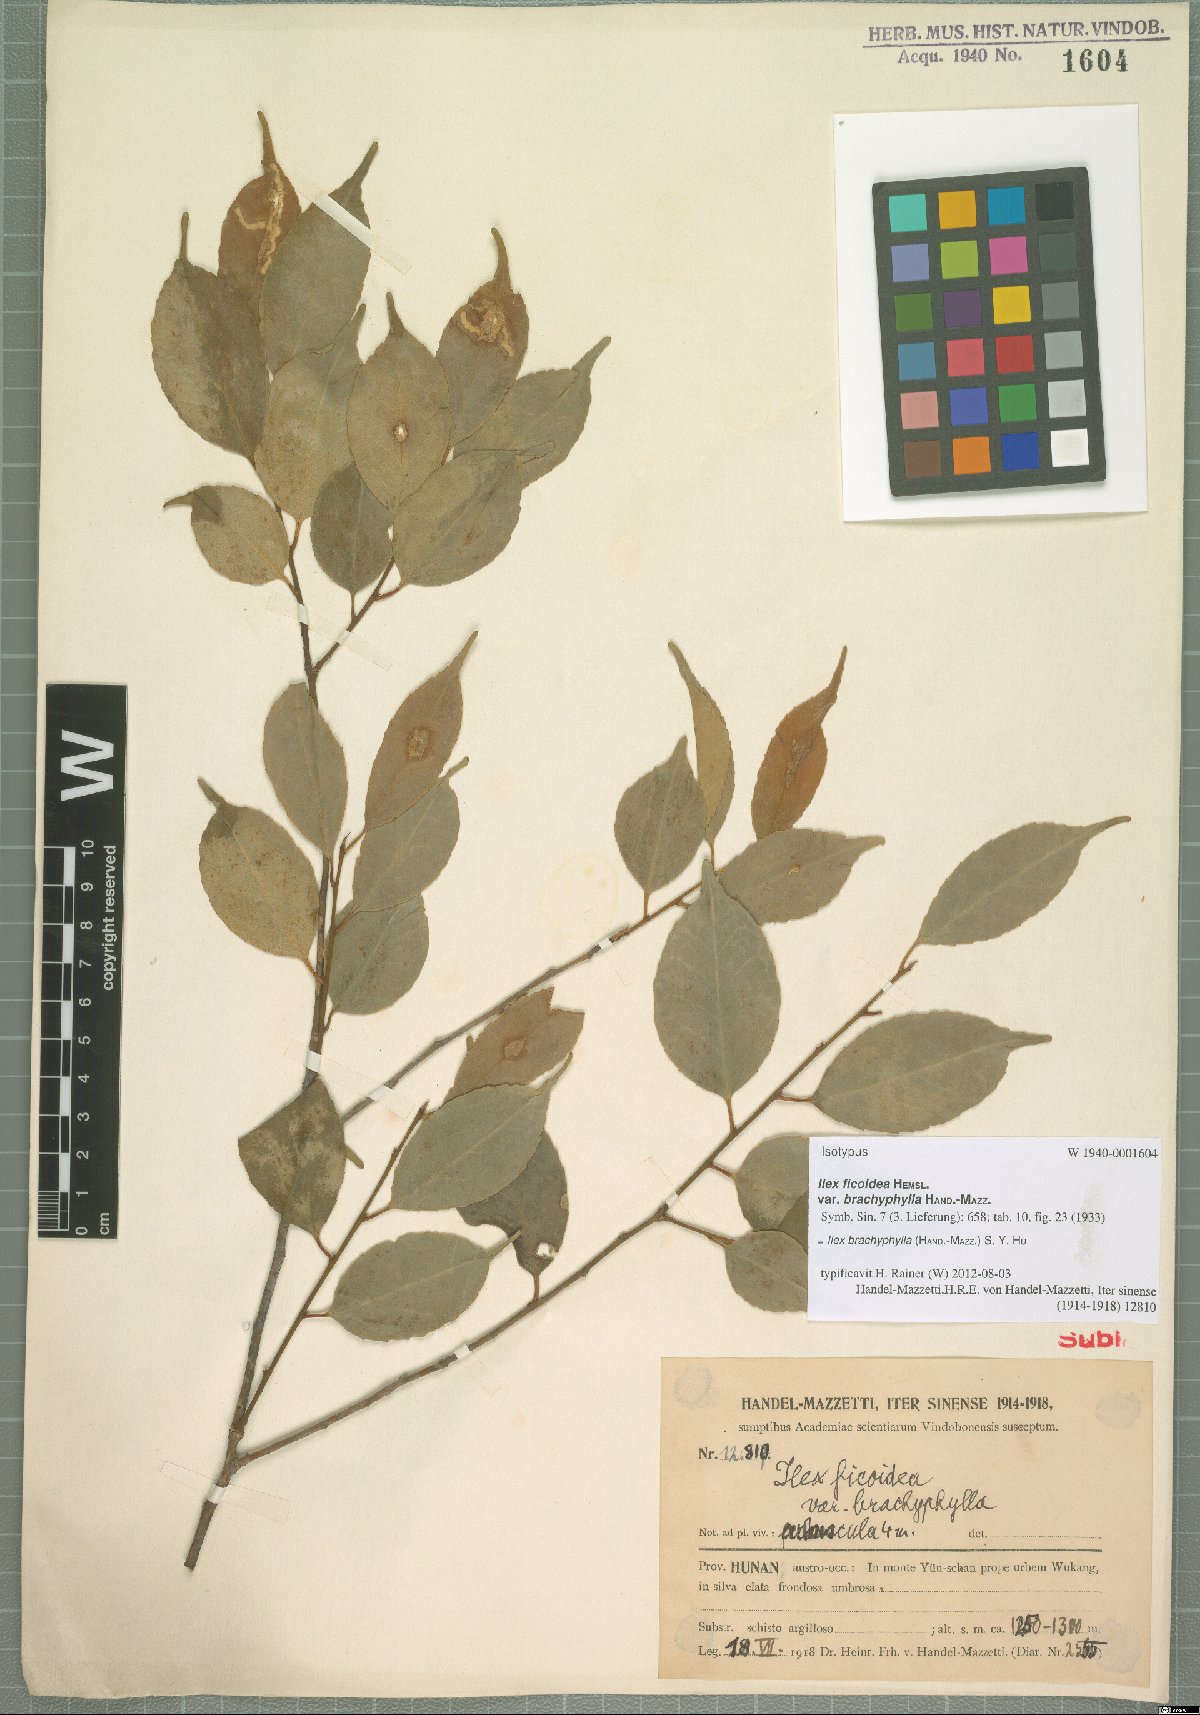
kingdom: Plantae
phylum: Tracheophyta
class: Magnoliopsida
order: Aquifoliales
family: Aquifoliaceae
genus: Ilex
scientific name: Ilex brachyphylla
